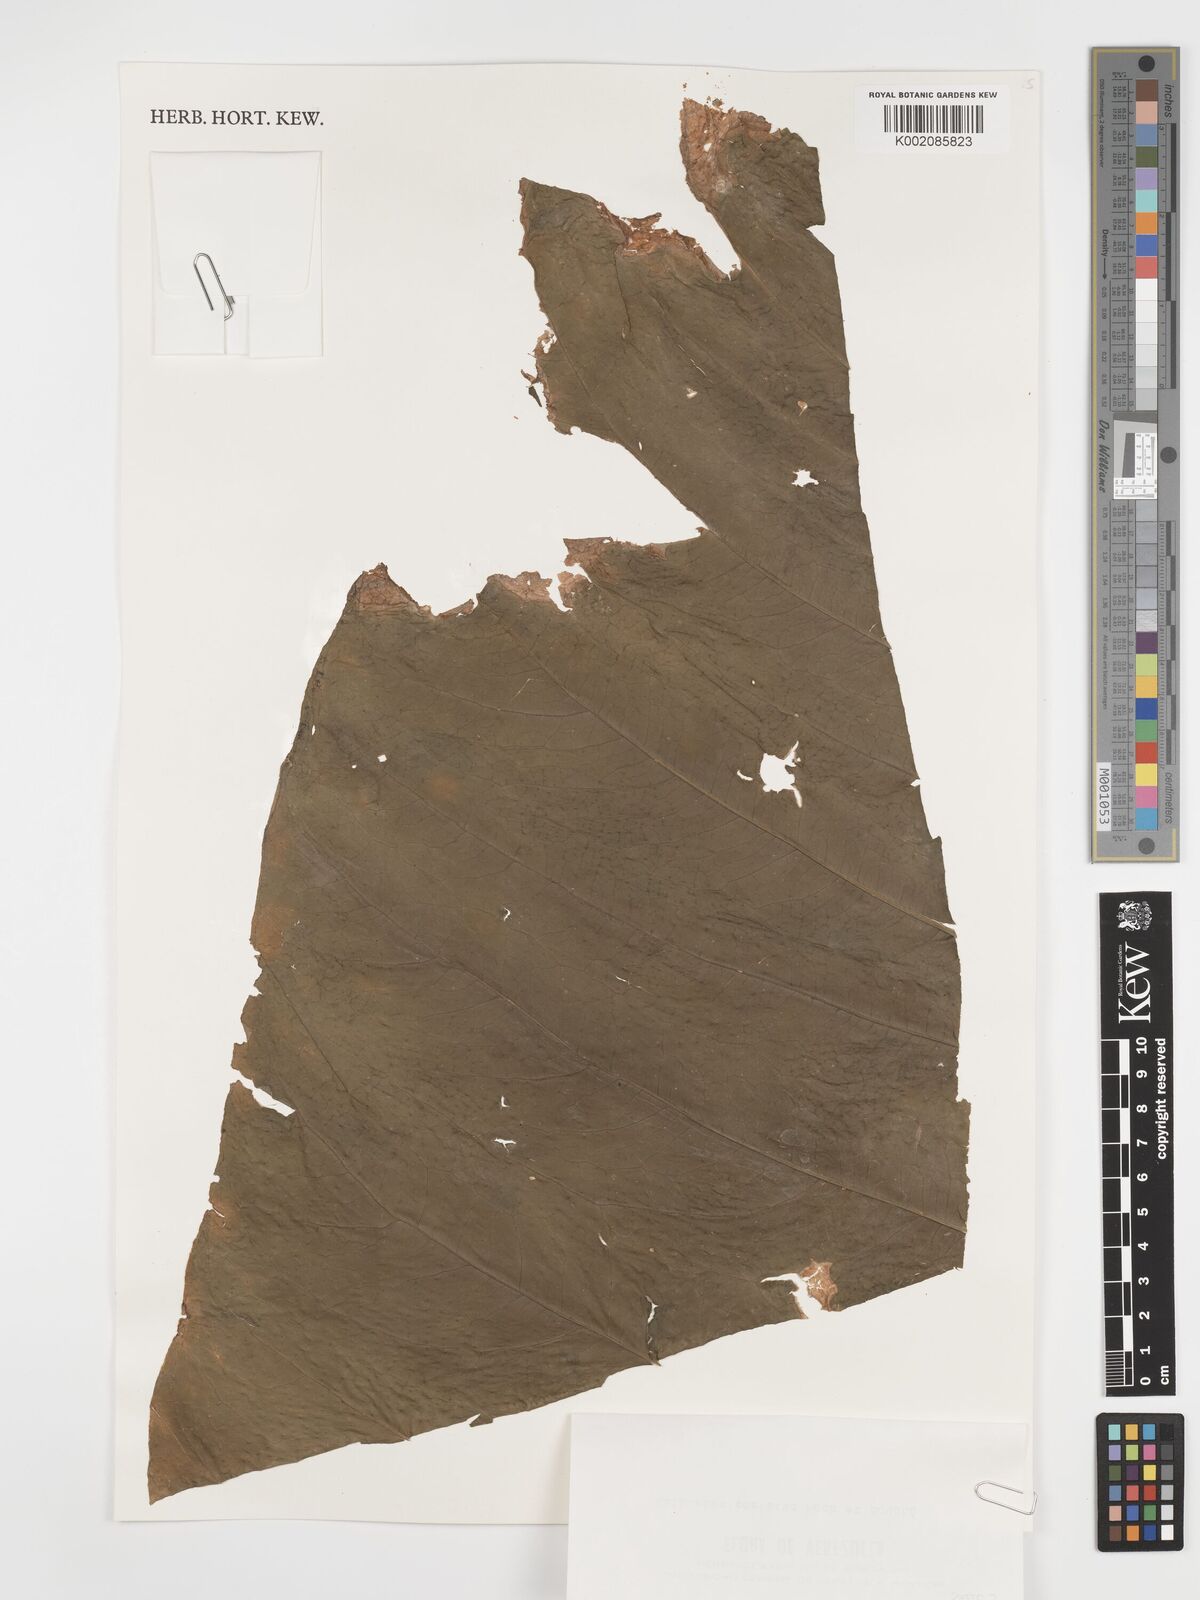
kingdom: Plantae
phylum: Tracheophyta
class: Liliopsida
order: Alismatales
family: Araceae
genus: Anthurium
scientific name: Anthurium macrophyllum
